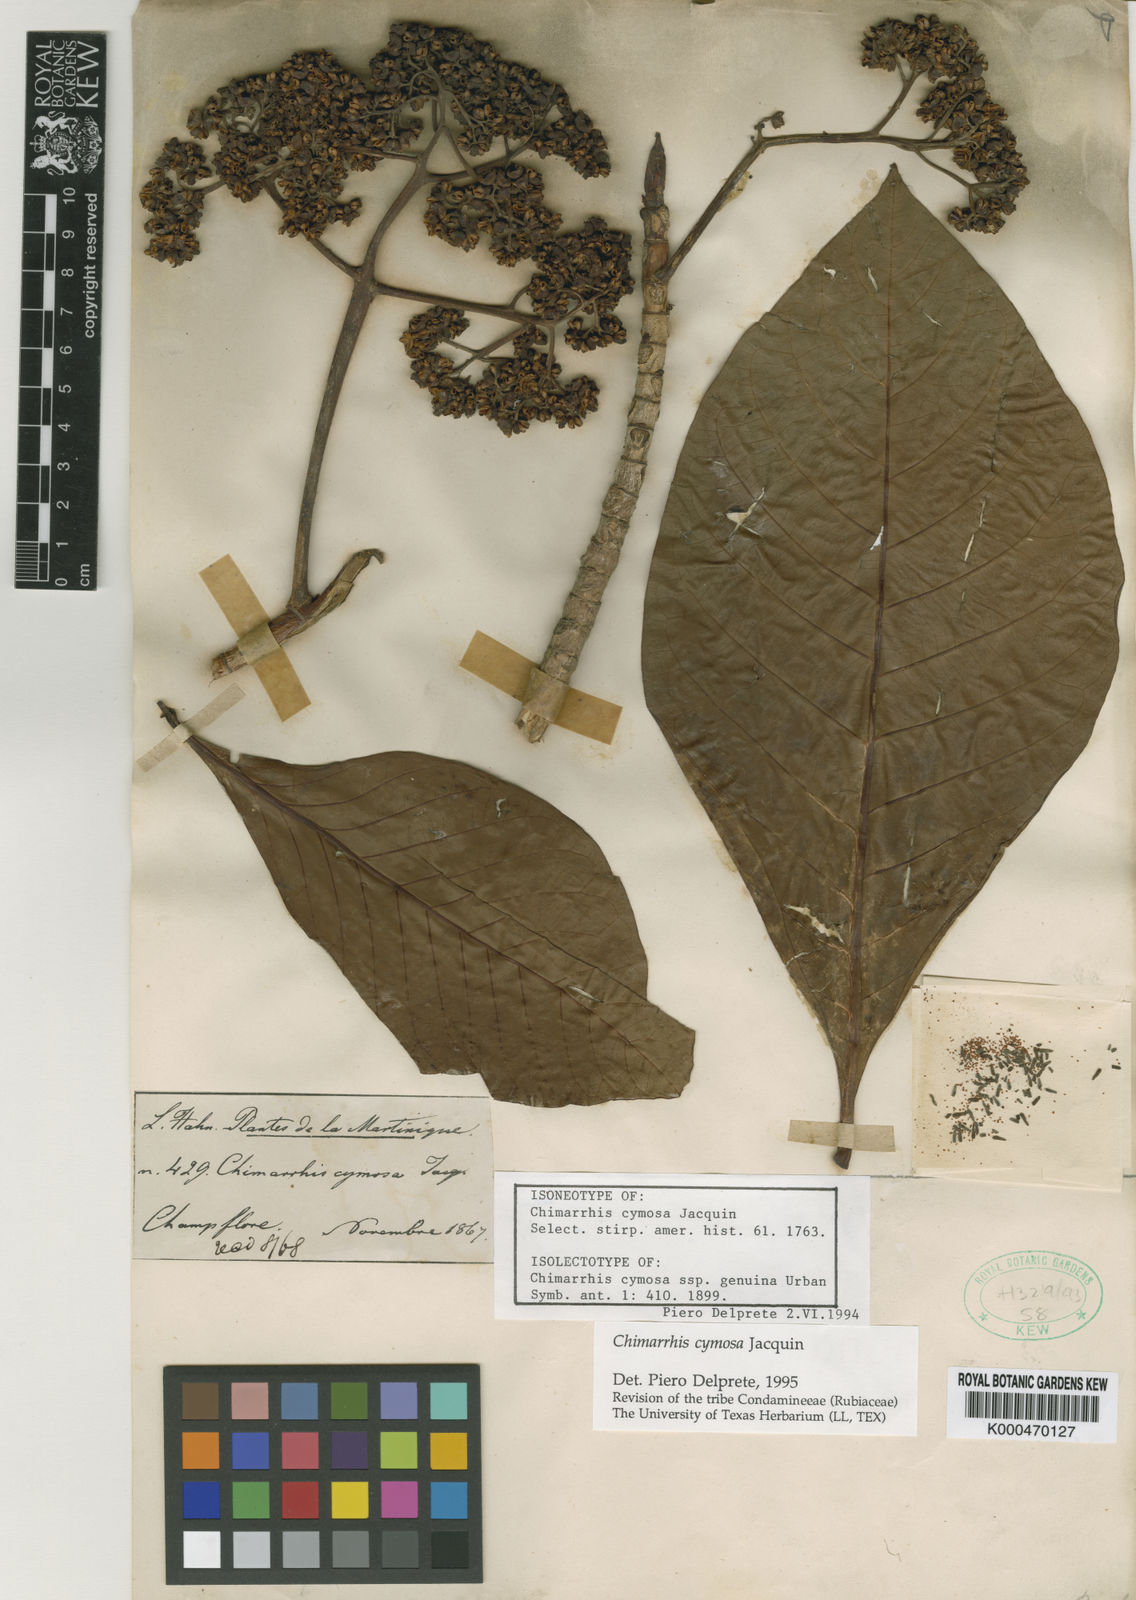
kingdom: Plantae
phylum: Tracheophyta
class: Magnoliopsida
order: Gentianales
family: Rubiaceae
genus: Chimarrhis
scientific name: Chimarrhis cymosa
